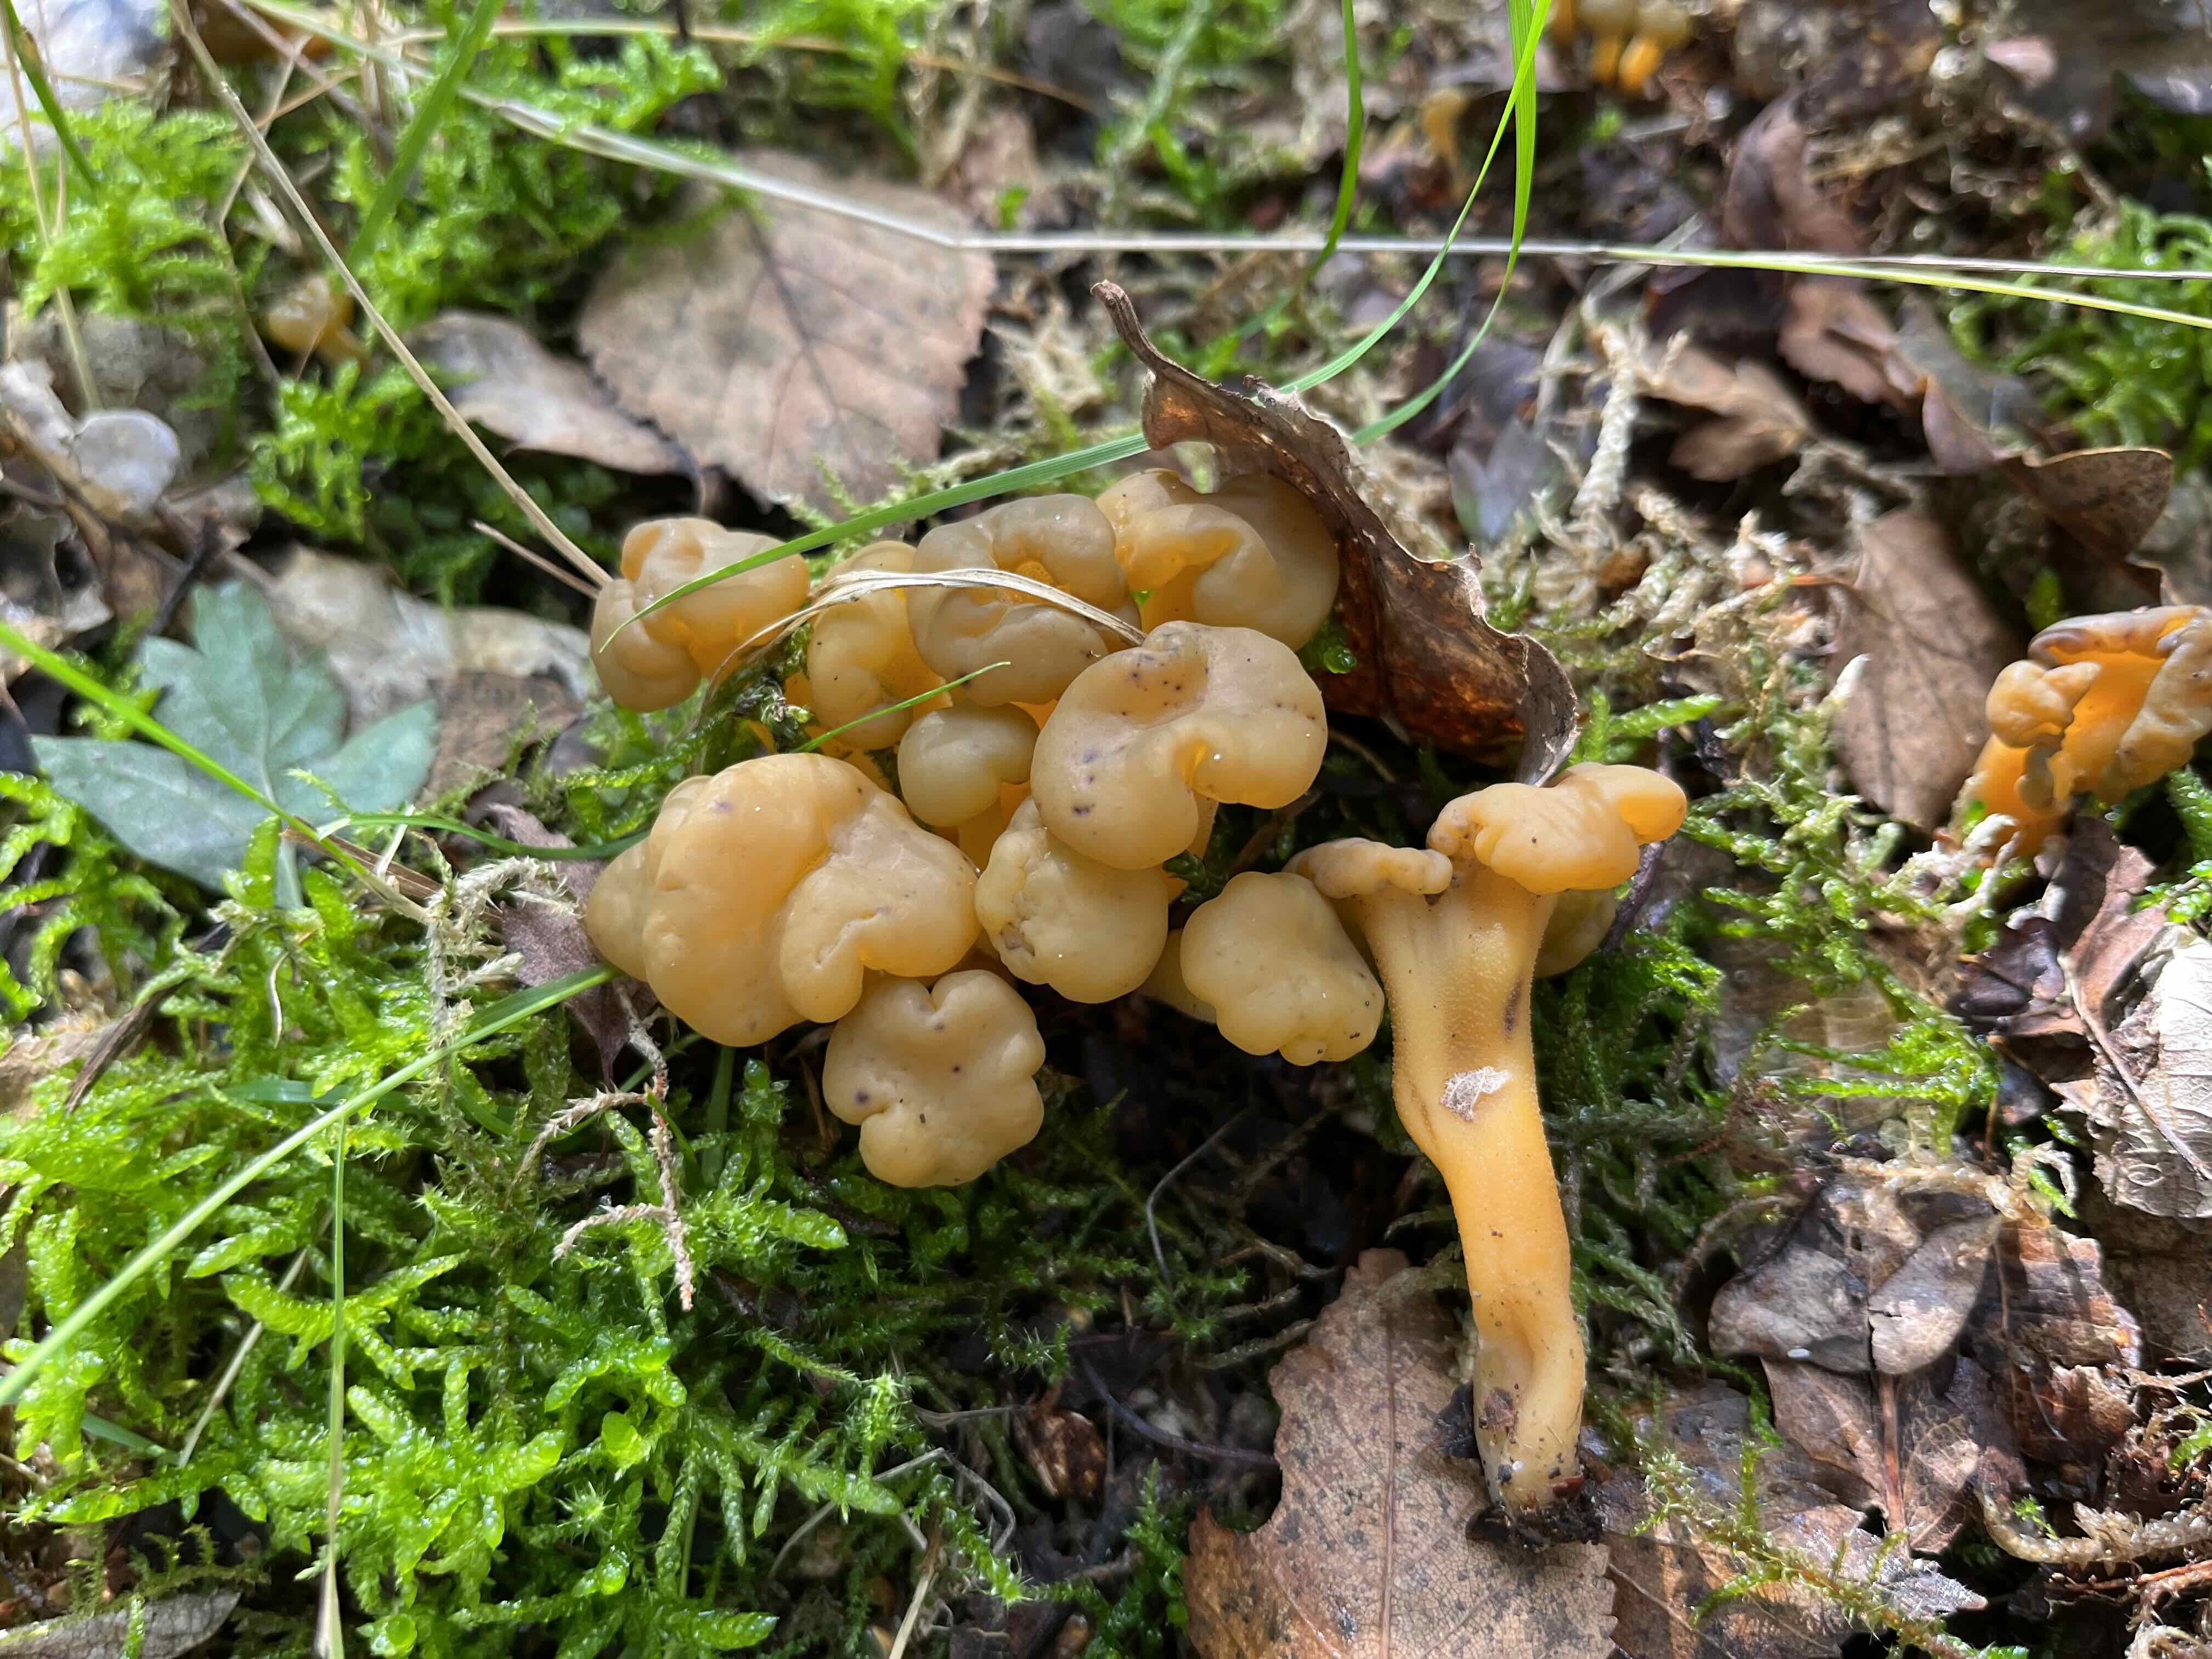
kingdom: Fungi
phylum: Ascomycota
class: Leotiomycetes
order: Leotiales
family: Leotiaceae
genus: Leotia
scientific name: Leotia lubrica
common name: ravsvamp
